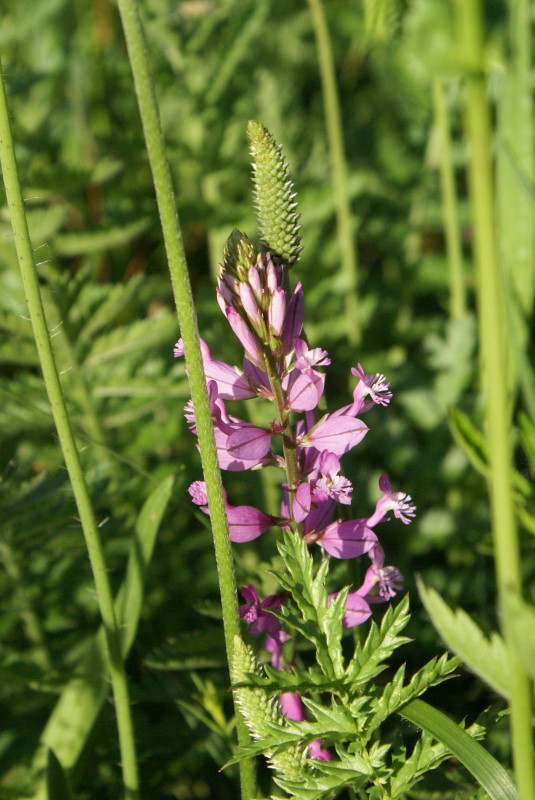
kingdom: Plantae
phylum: Tracheophyta
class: Magnoliopsida
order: Fabales
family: Polygalaceae
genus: Polygala
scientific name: Polygala major
